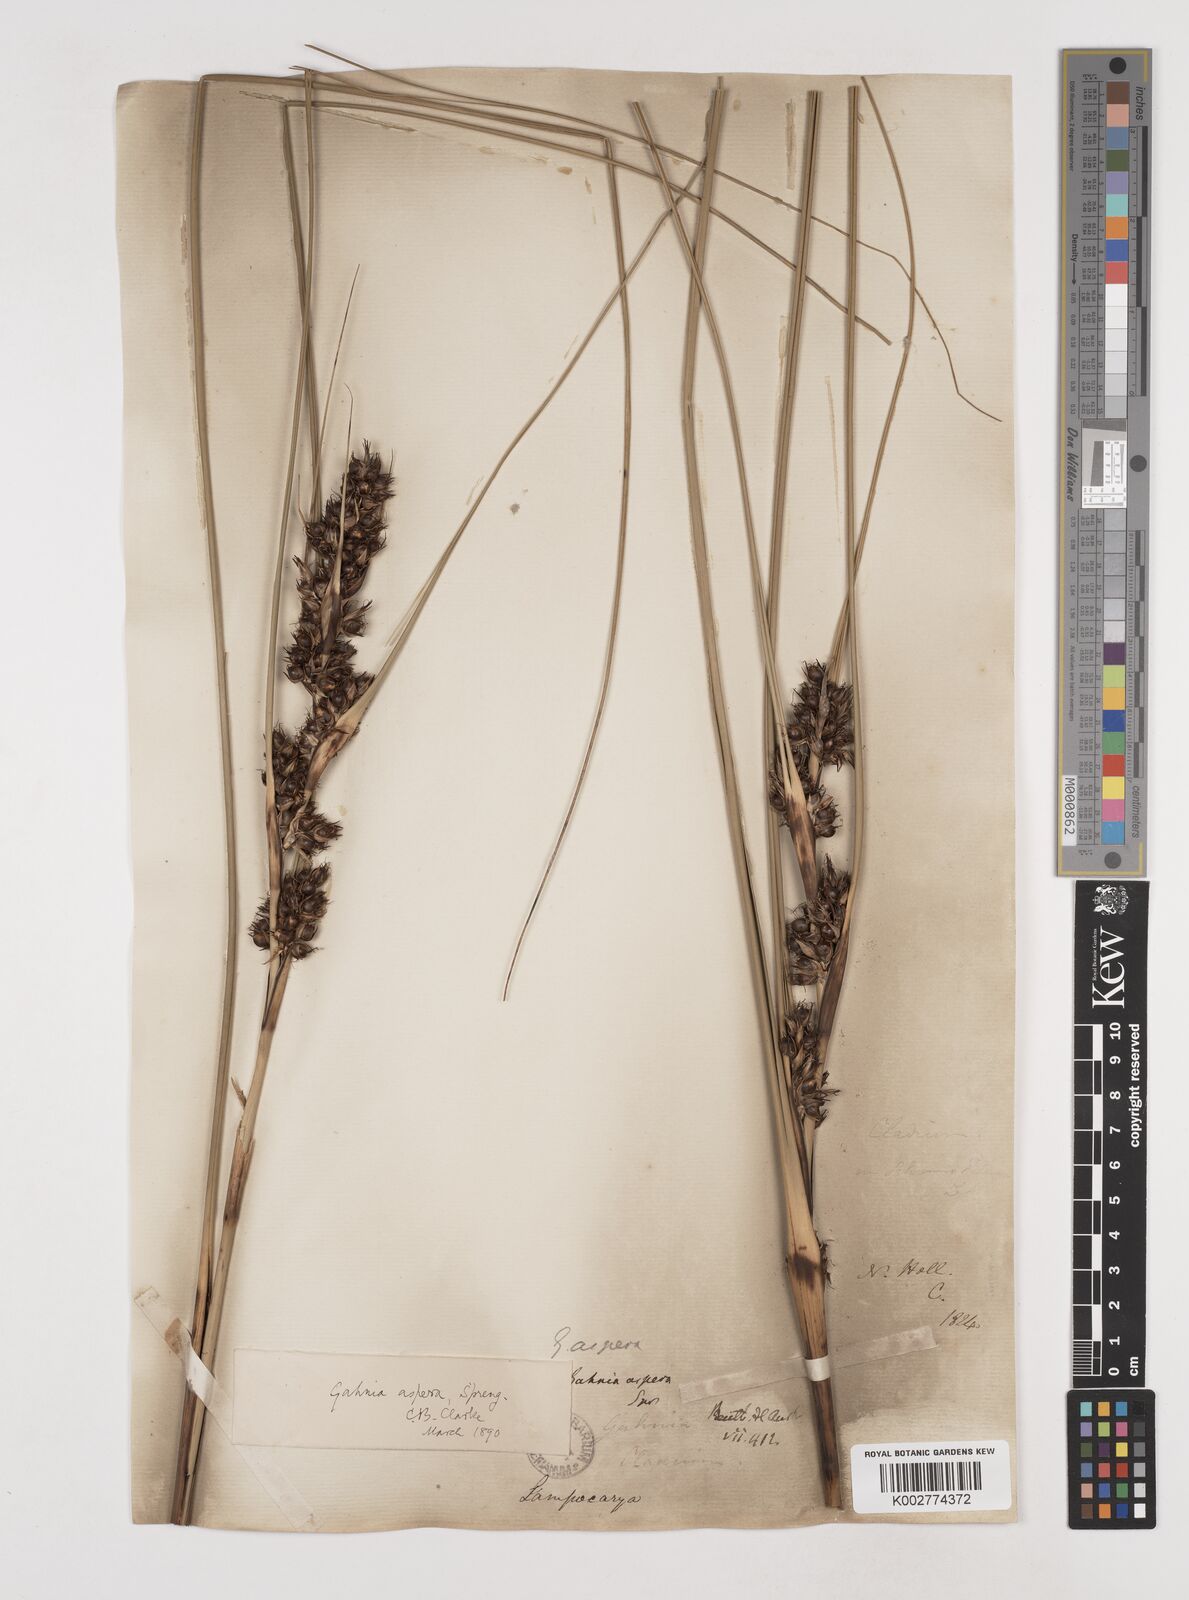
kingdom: Plantae
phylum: Tracheophyta
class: Liliopsida
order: Poales
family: Cyperaceae
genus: Gahnia
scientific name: Gahnia aspera
